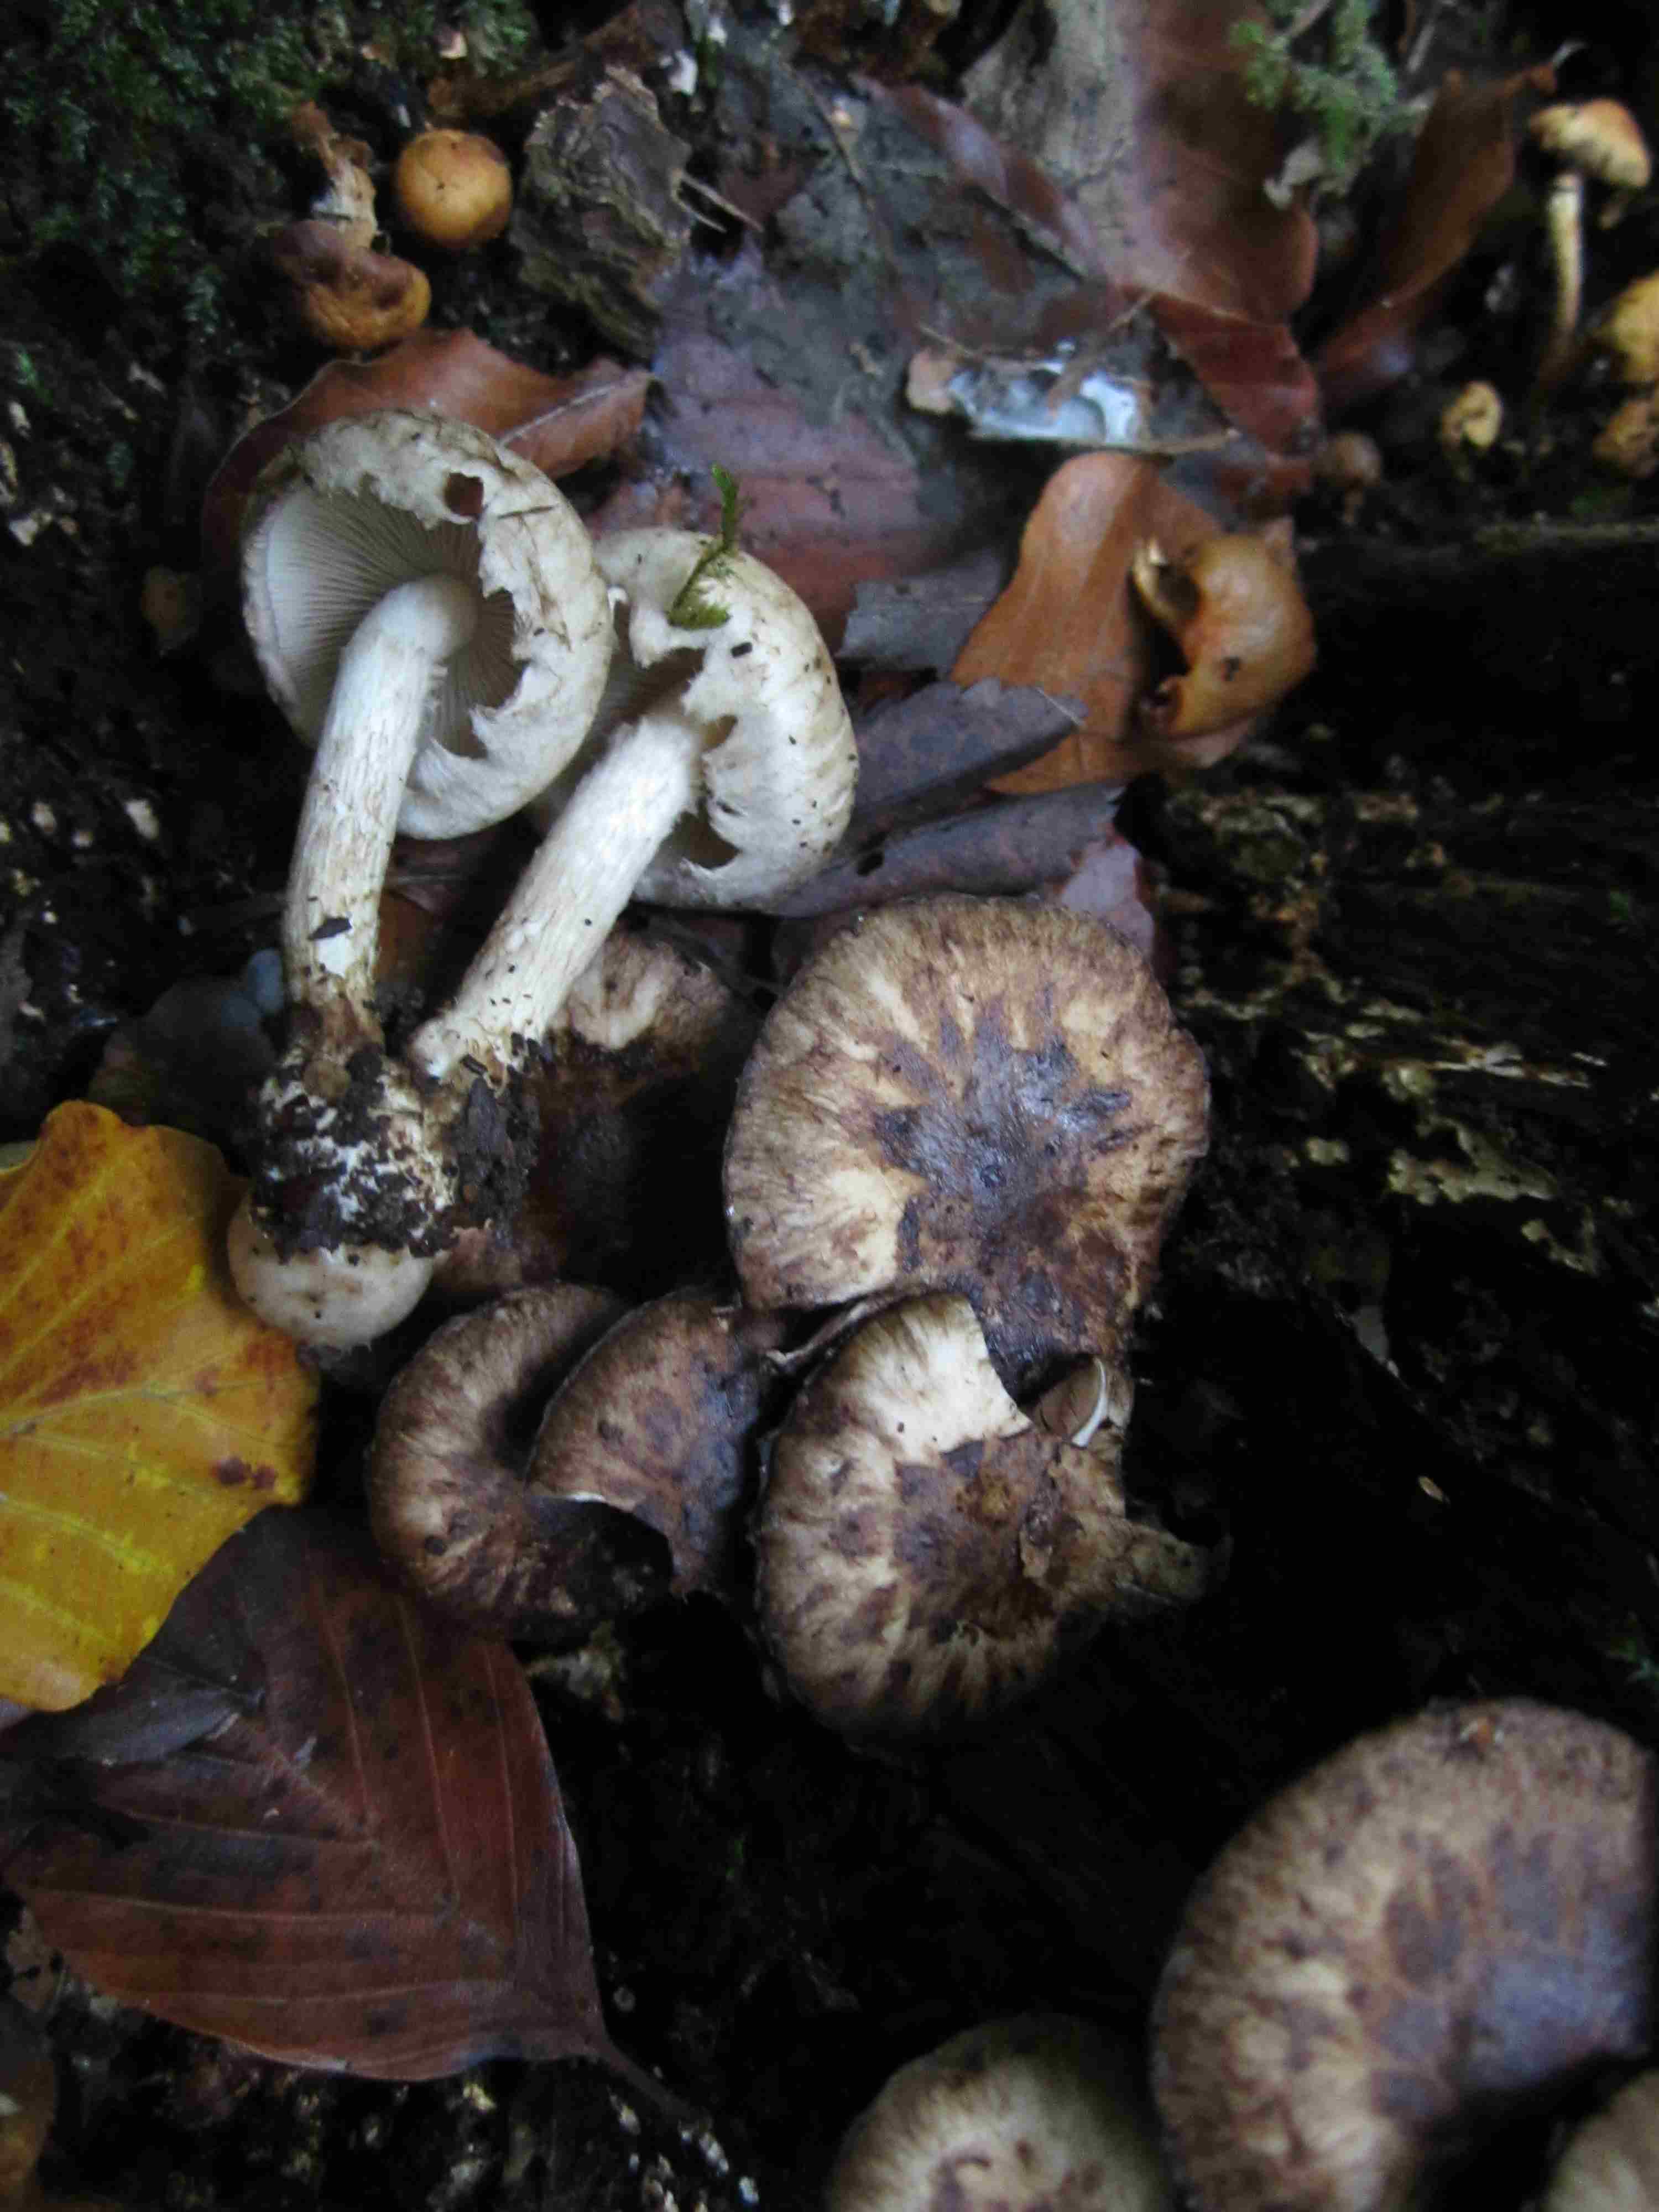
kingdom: Fungi
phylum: Basidiomycota
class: Agaricomycetes
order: Agaricales
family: Psathyrellaceae
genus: Psathyrella
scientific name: Psathyrella maculata
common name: sortskællet mørkhat
